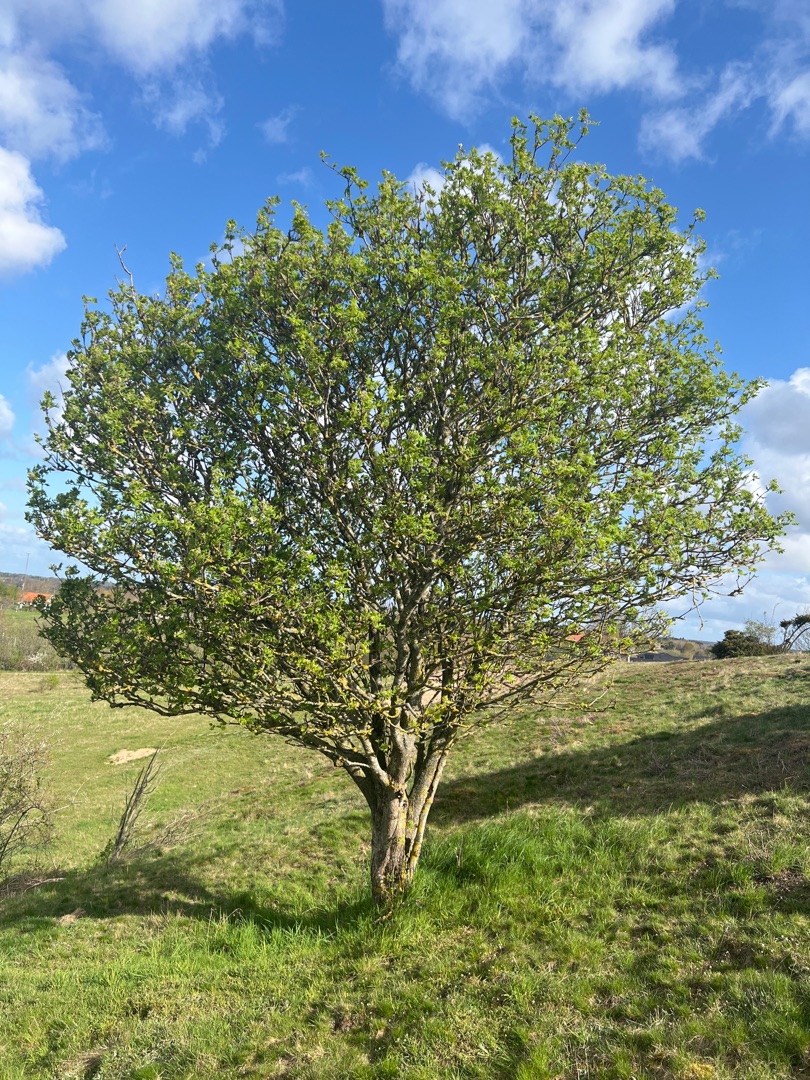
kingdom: Plantae
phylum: Tracheophyta
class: Magnoliopsida
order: Rosales
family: Rosaceae
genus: Sorbus
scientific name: Sorbus aucuparia
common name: Almindelig røn
